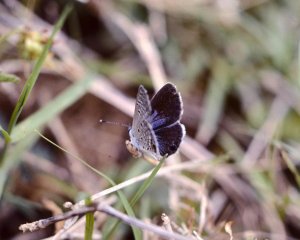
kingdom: Animalia
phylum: Arthropoda
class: Insecta
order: Lepidoptera
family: Lycaenidae
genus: Hemiargus
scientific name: Hemiargus ceraunus
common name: Ceraunus Blue
